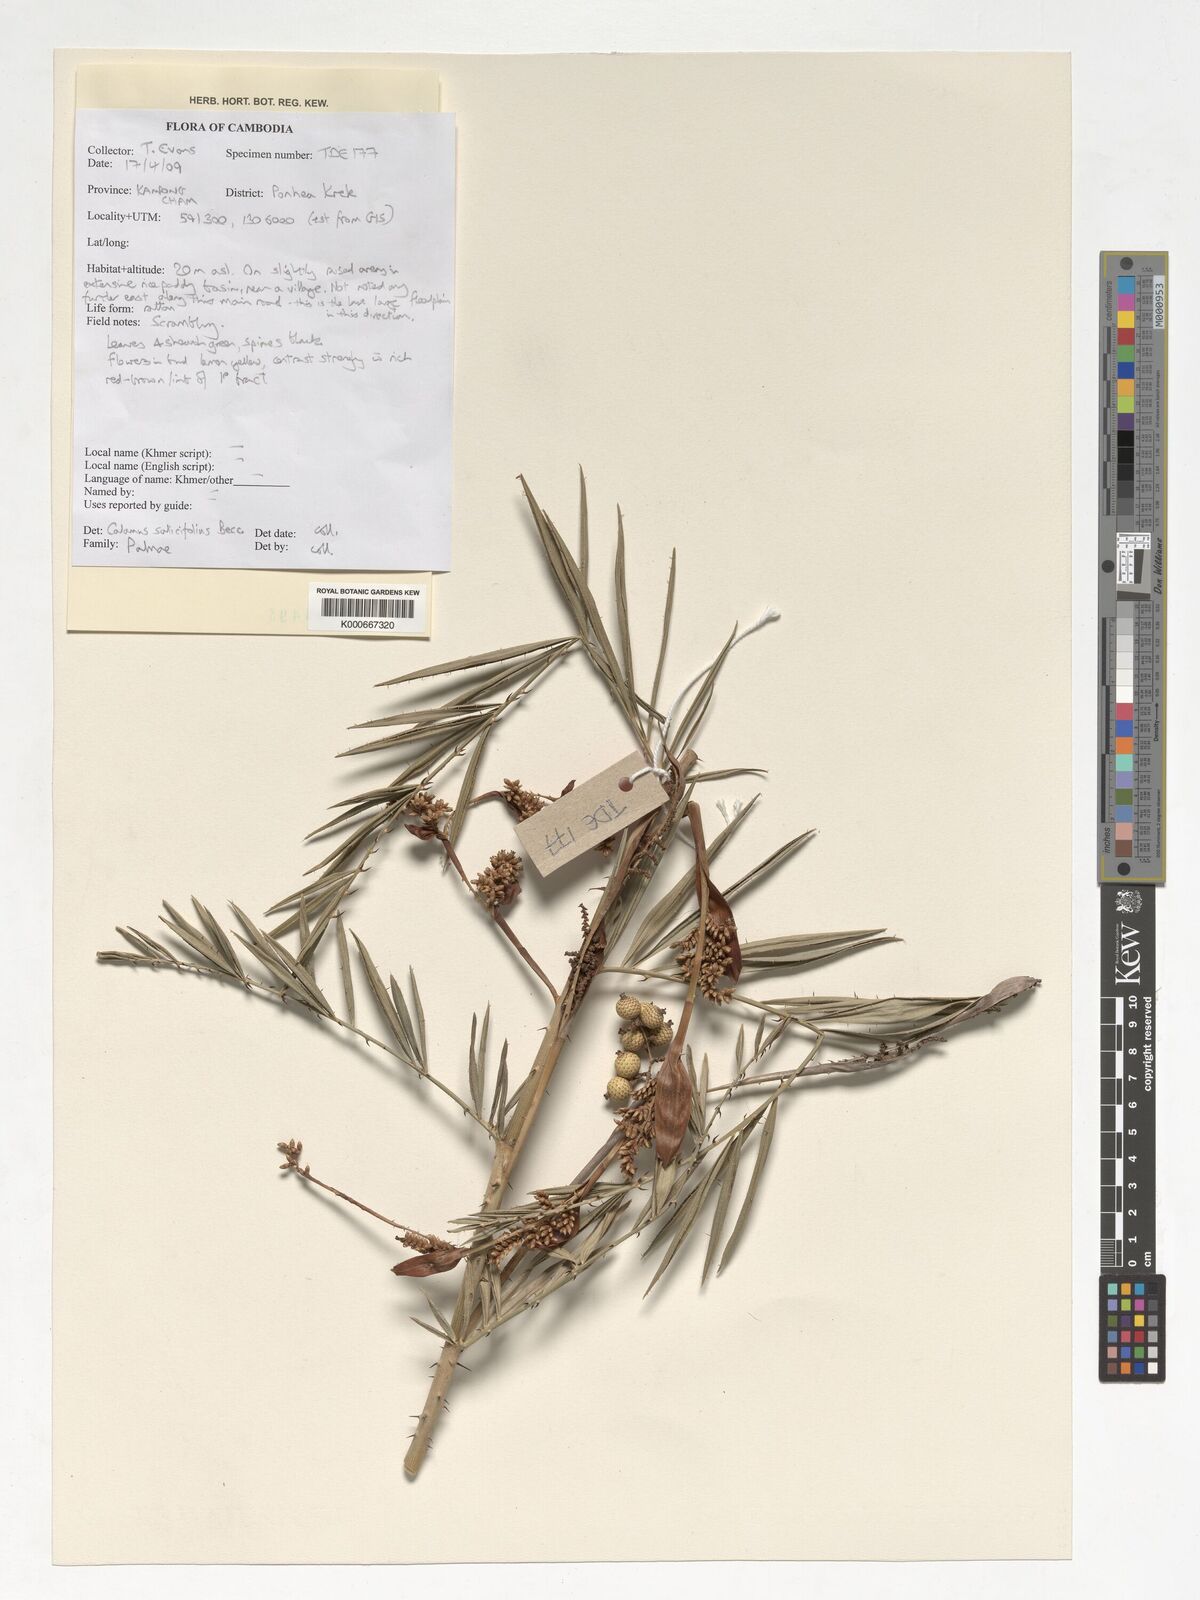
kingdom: Plantae
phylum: Tracheophyta
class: Liliopsida
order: Arecales
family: Arecaceae
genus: Calamus
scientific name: Calamus salicifolius
